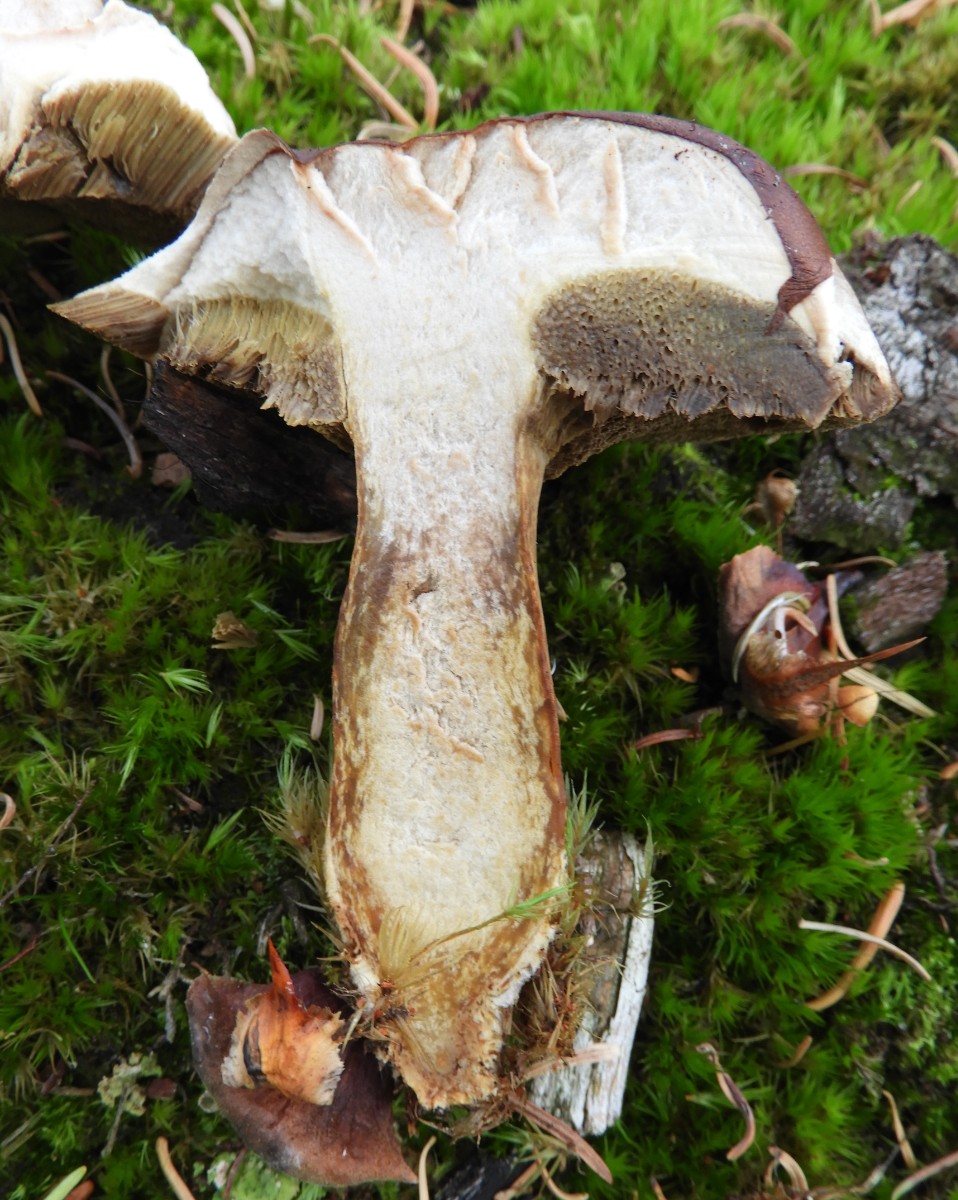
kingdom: Fungi
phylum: Basidiomycota
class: Agaricomycetes
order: Boletales
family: Boletaceae
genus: Imleria
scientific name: Imleria badia
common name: brunstokket rørhat
